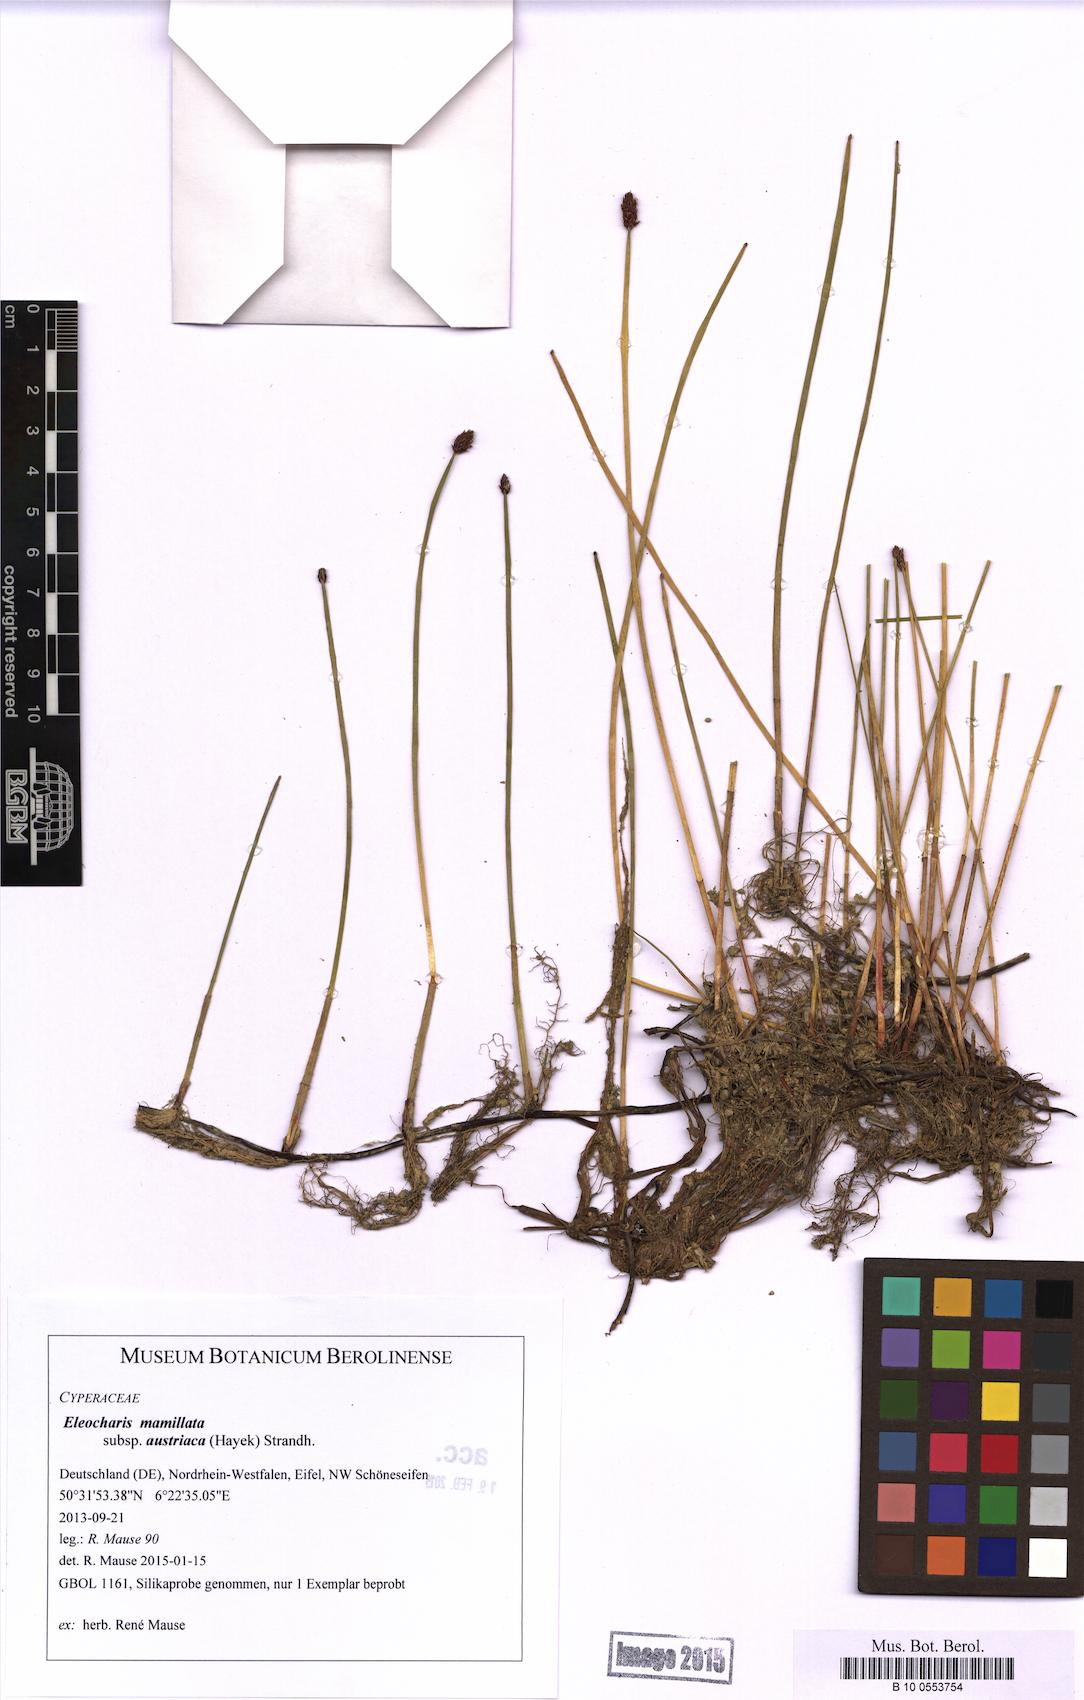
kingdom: Plantae
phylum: Tracheophyta
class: Liliopsida
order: Poales
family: Cyperaceae
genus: Eleocharis
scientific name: Eleocharis mamillata
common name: Northern spike-rush
